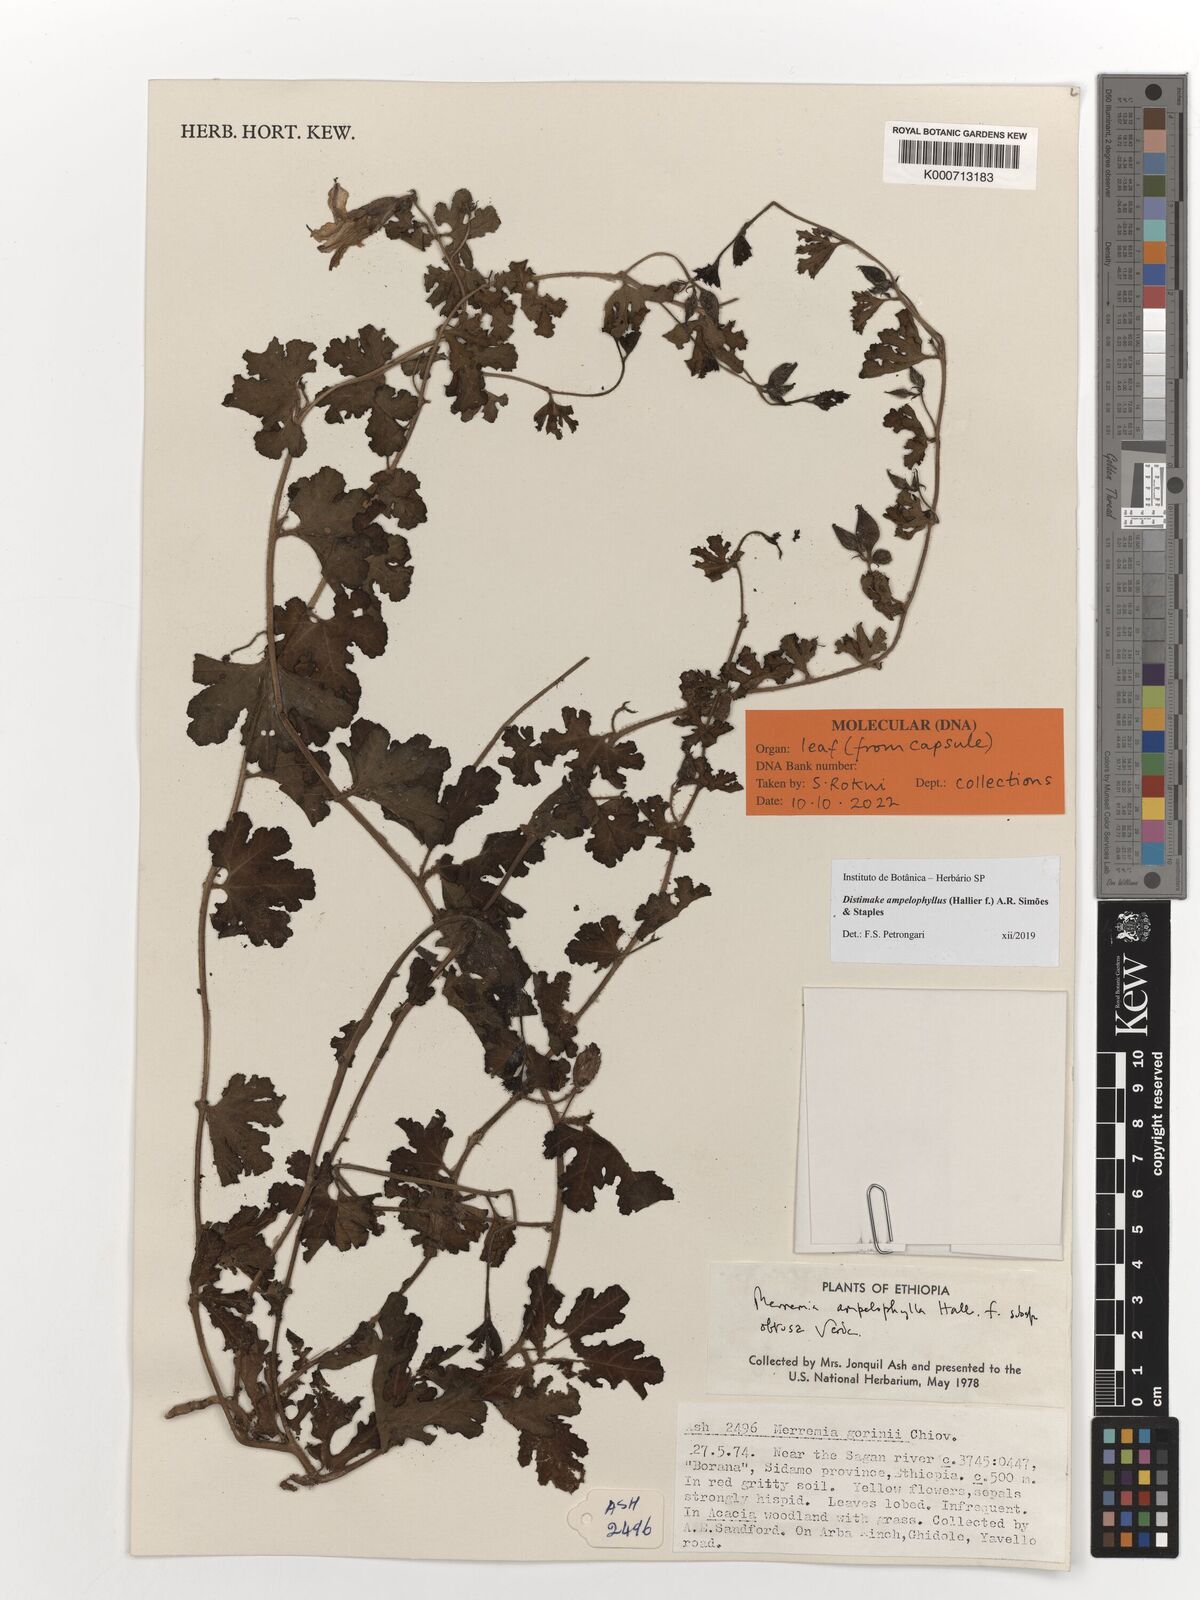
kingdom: Plantae
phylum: Tracheophyta
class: Magnoliopsida
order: Solanales
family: Convolvulaceae
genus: Distimake
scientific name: Distimake ampelophyllus
